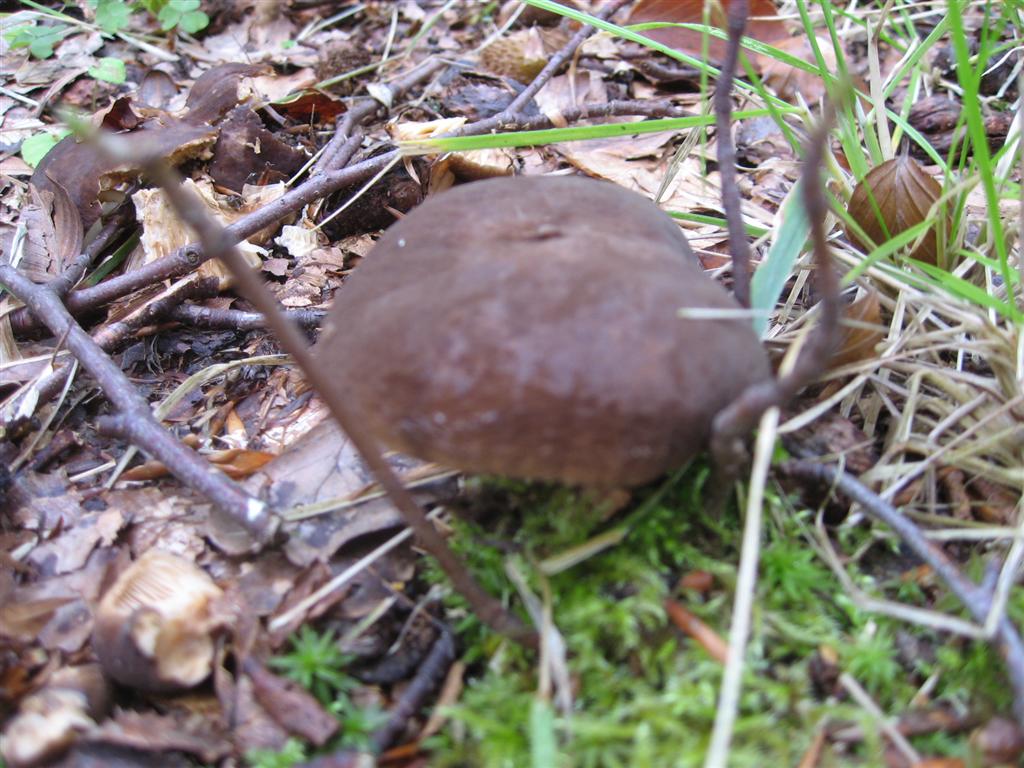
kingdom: Fungi
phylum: Basidiomycota
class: Agaricomycetes
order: Russulales
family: Russulaceae
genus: Lactarius
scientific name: Lactarius romagnesii
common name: fjernbladet mælkehat
